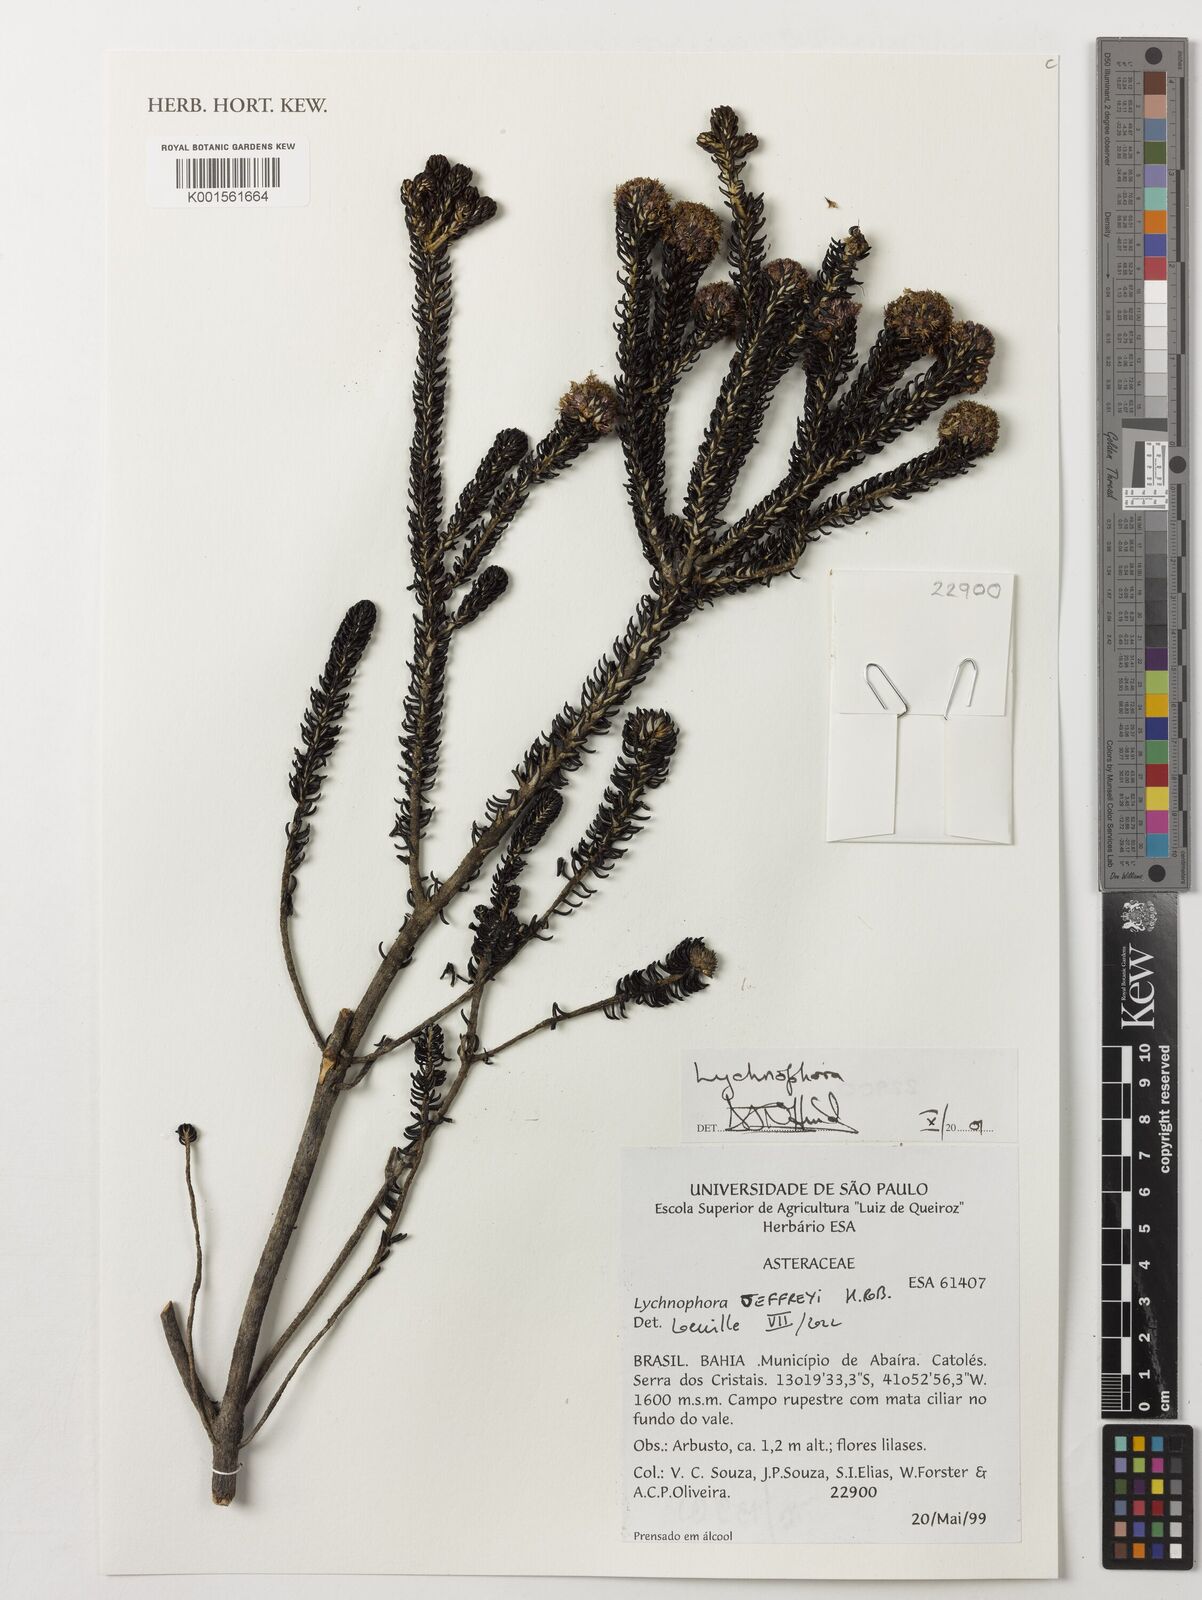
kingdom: Plantae
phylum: Tracheophyta
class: Magnoliopsida
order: Asterales
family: Asteraceae
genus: Lychnophora
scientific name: Lychnophora
